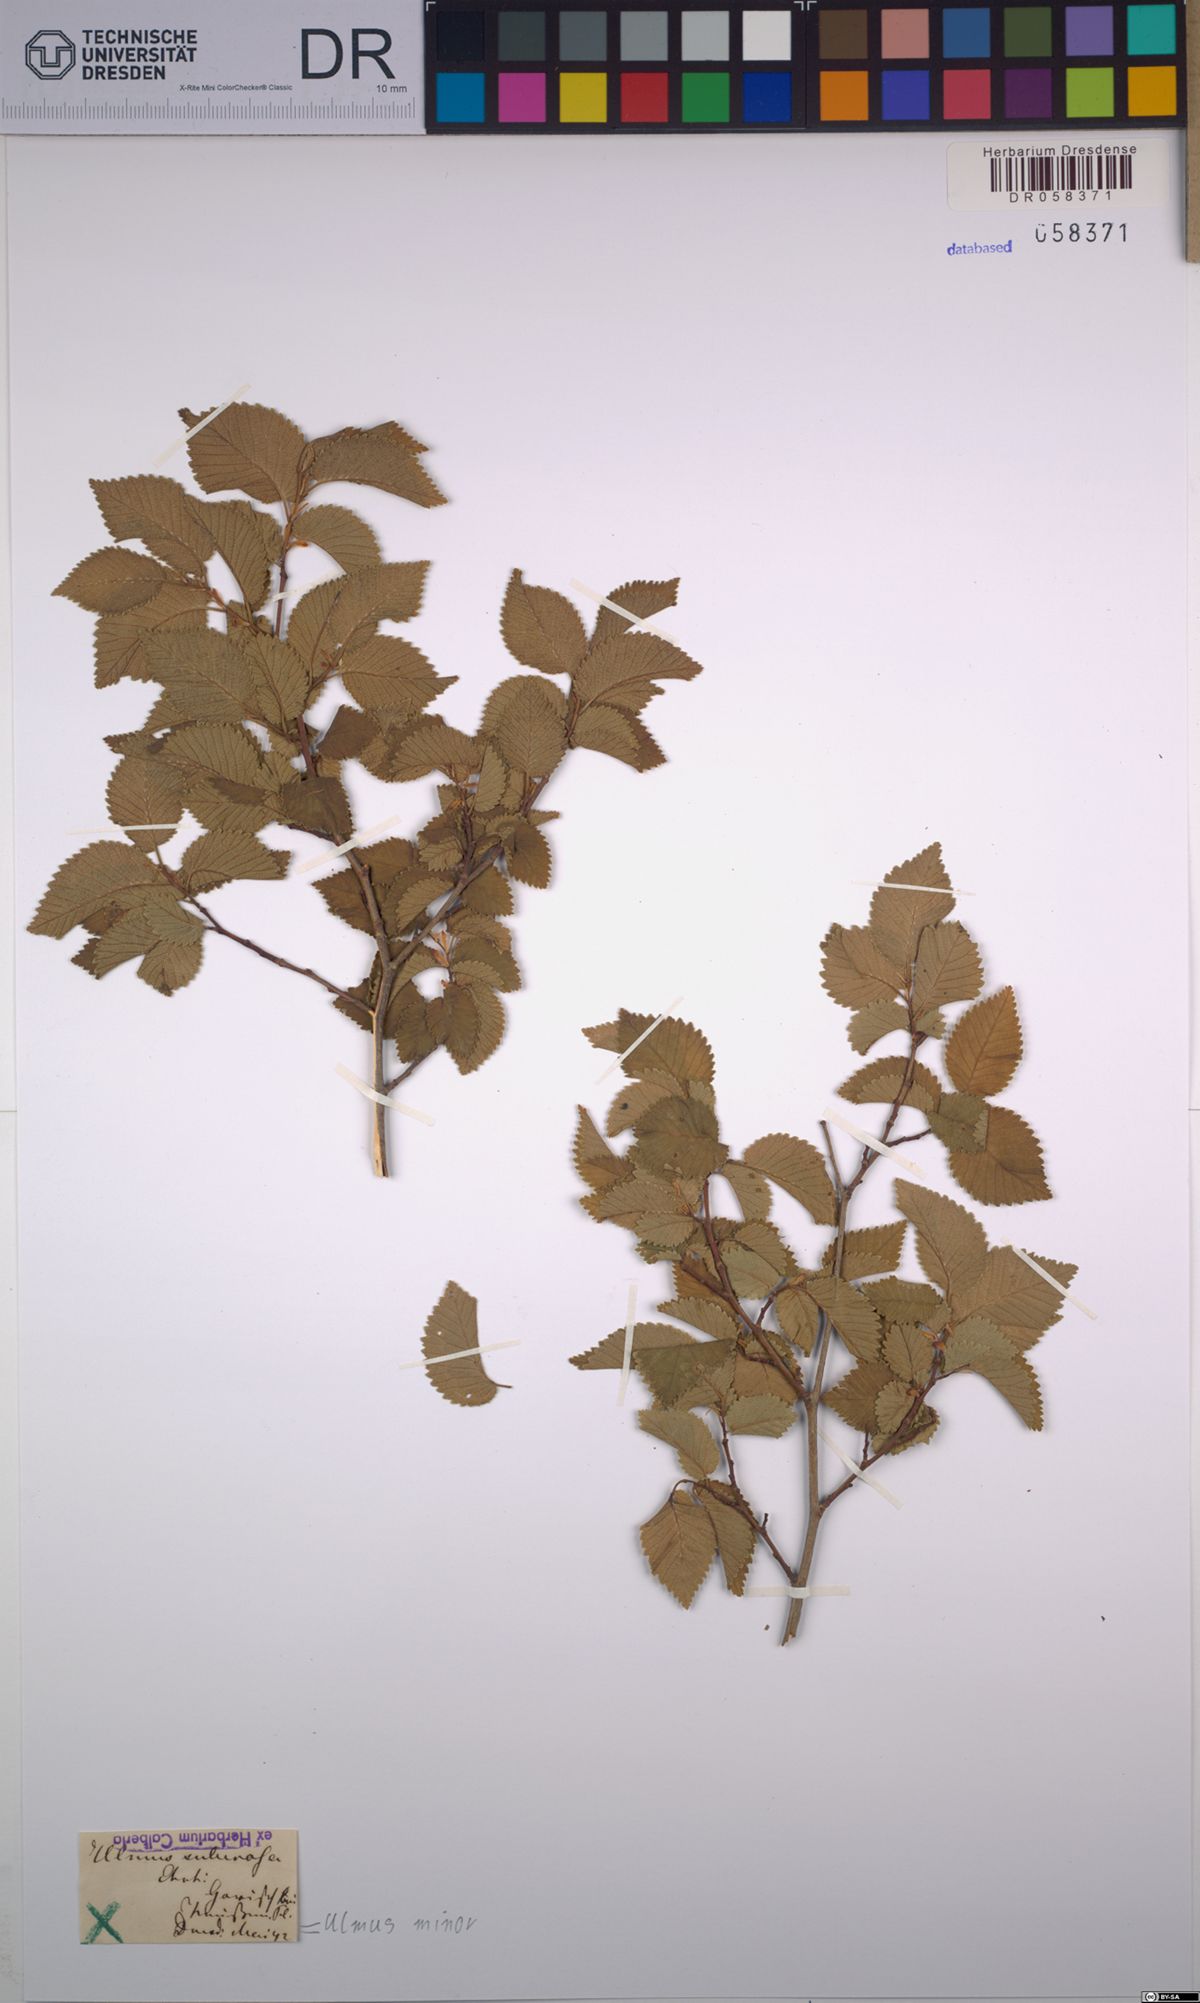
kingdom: Plantae
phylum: Tracheophyta
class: Magnoliopsida
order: Rosales
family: Ulmaceae
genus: Ulmus
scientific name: Ulmus minor
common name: Small-leaved elm
